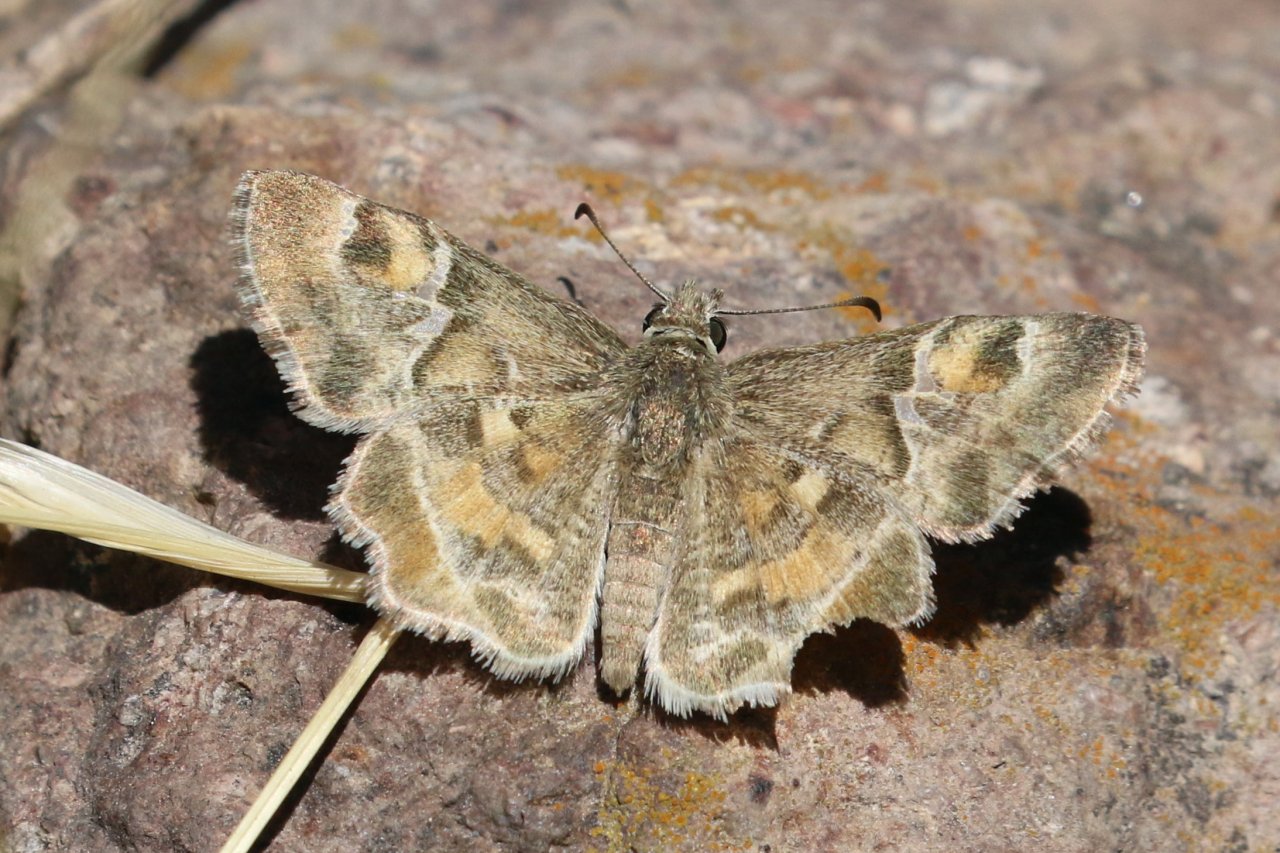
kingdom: Animalia
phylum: Arthropoda
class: Insecta
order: Lepidoptera
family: Hesperiidae
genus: Systasea
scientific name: Systasea zampa
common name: Arizona Powdered-Skipper
